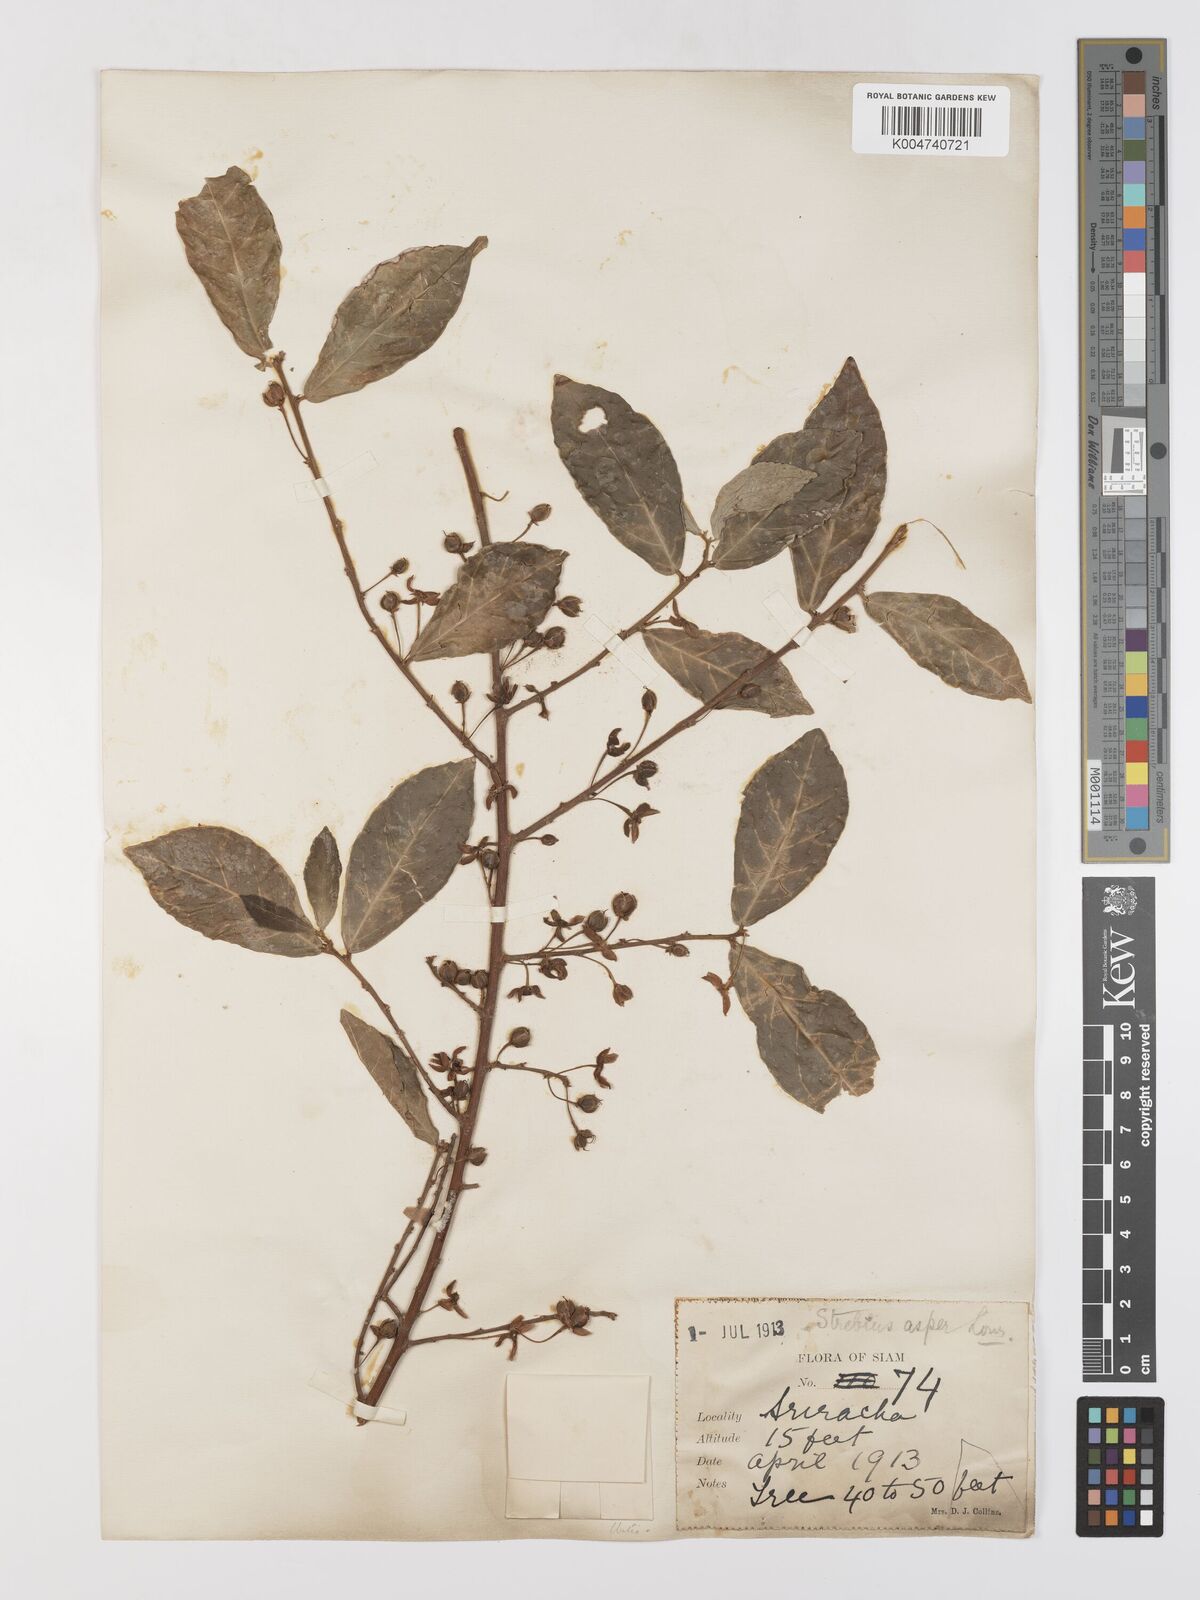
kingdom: Plantae
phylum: Tracheophyta
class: Magnoliopsida
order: Rosales
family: Moraceae
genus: Streblus
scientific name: Streblus asper
